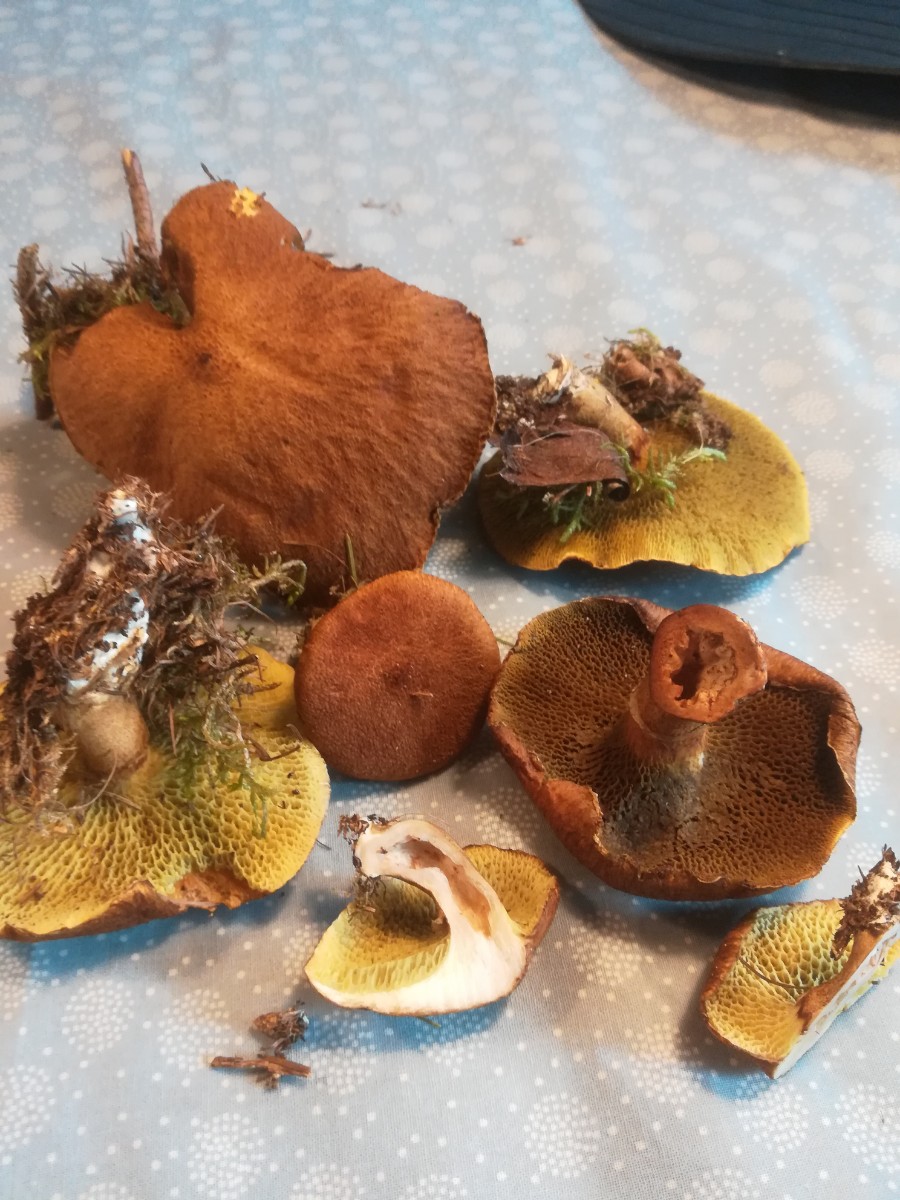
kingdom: Fungi
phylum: Basidiomycota
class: Agaricomycetes
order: Boletales
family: Suillaceae
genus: Suillus
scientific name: Suillus cavipes
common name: hulstokket slimrørhat
